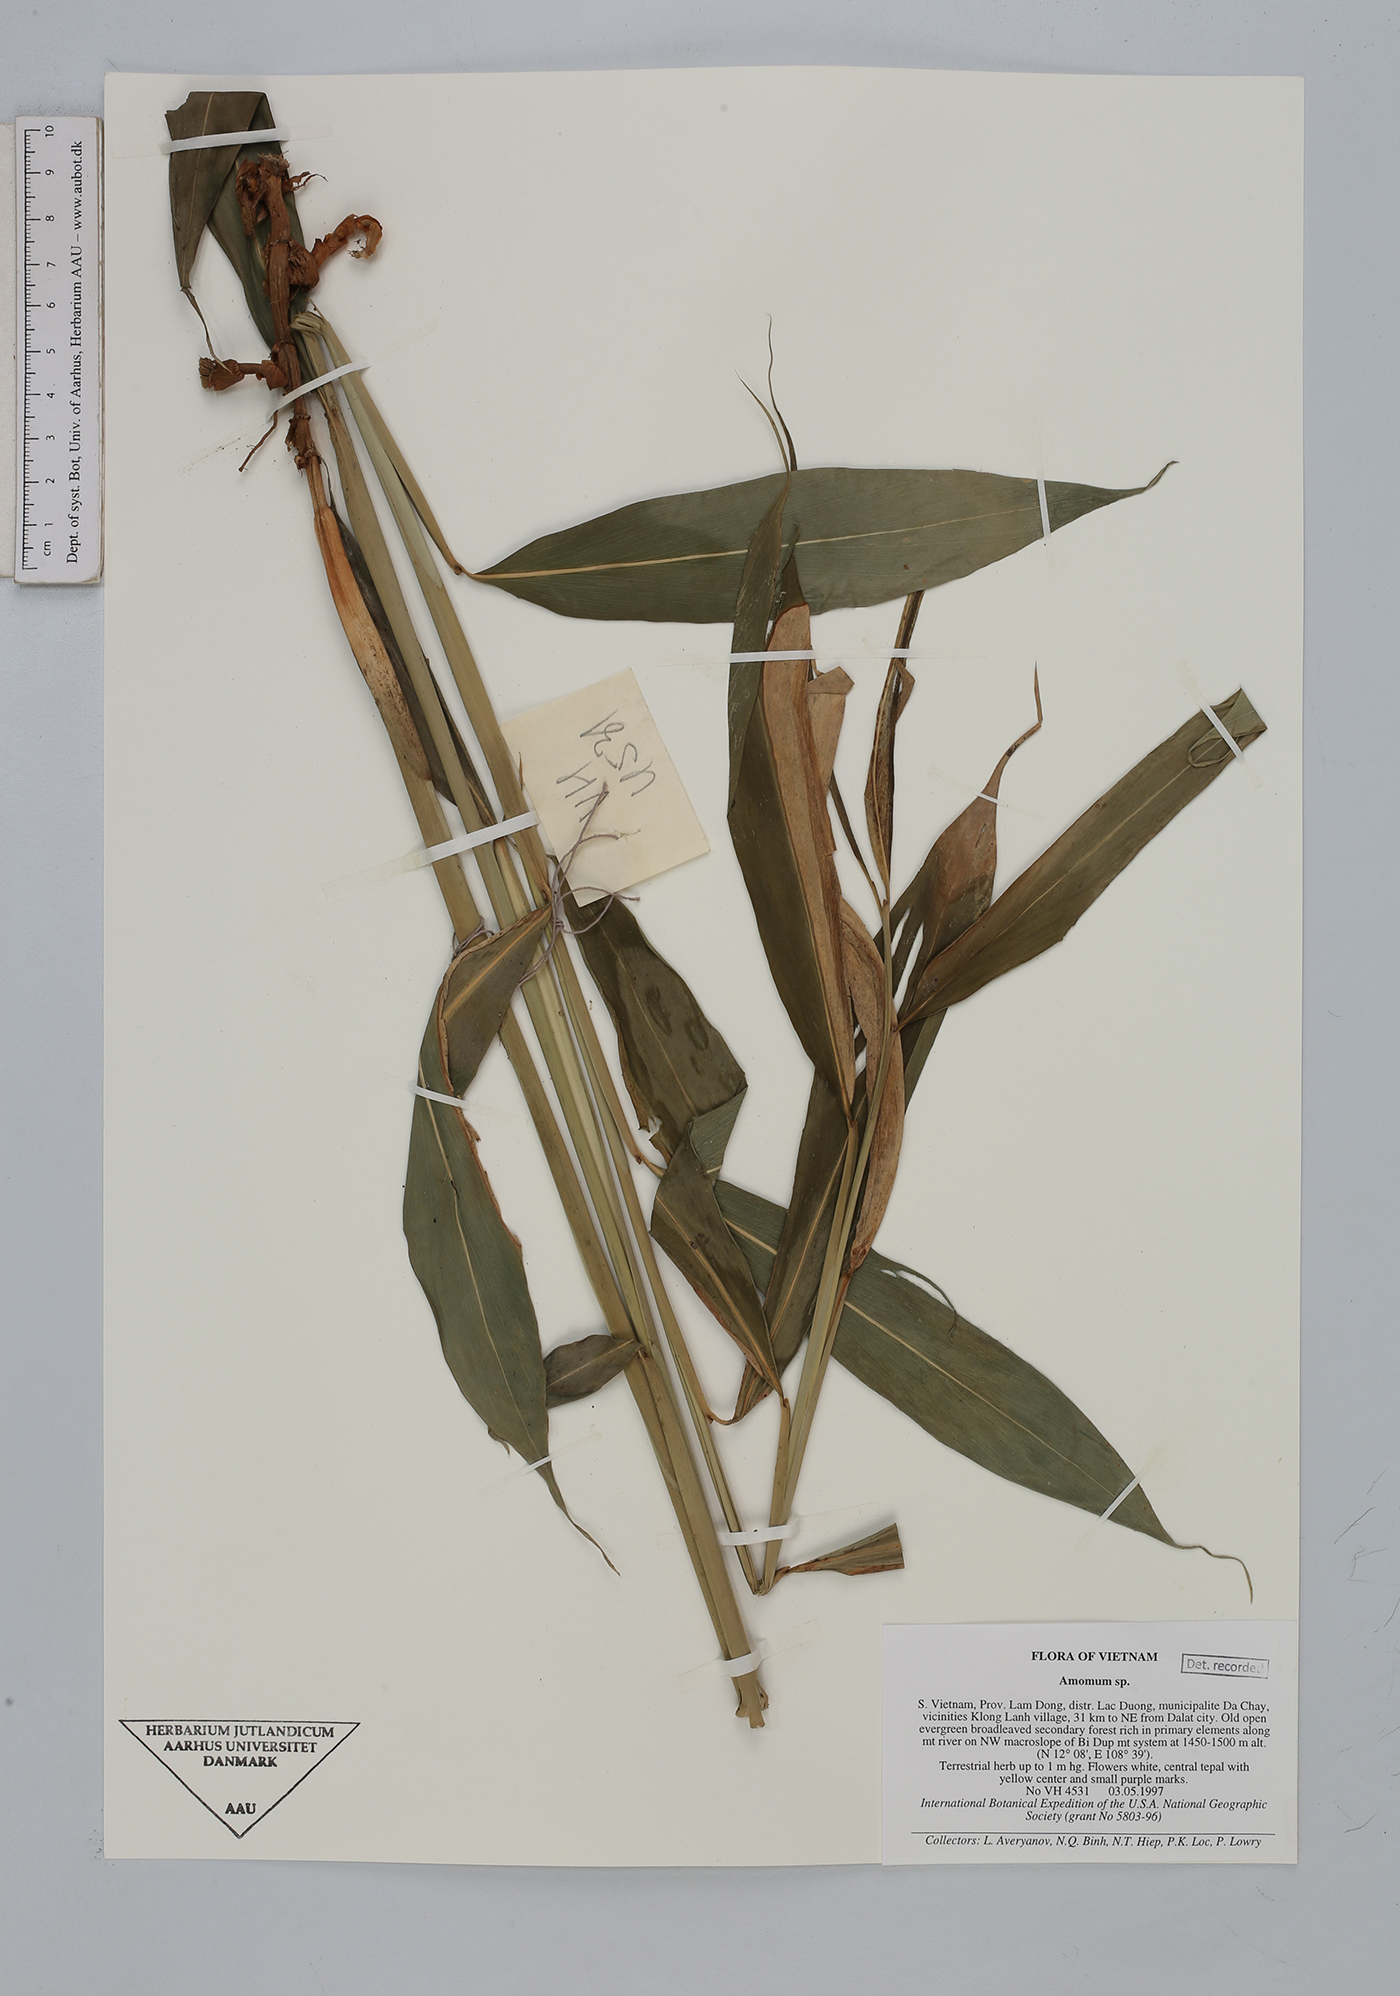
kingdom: Plantae
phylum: Tracheophyta
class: Liliopsida
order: Zingiberales
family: Zingiberaceae
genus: Amomum
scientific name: Amomum
